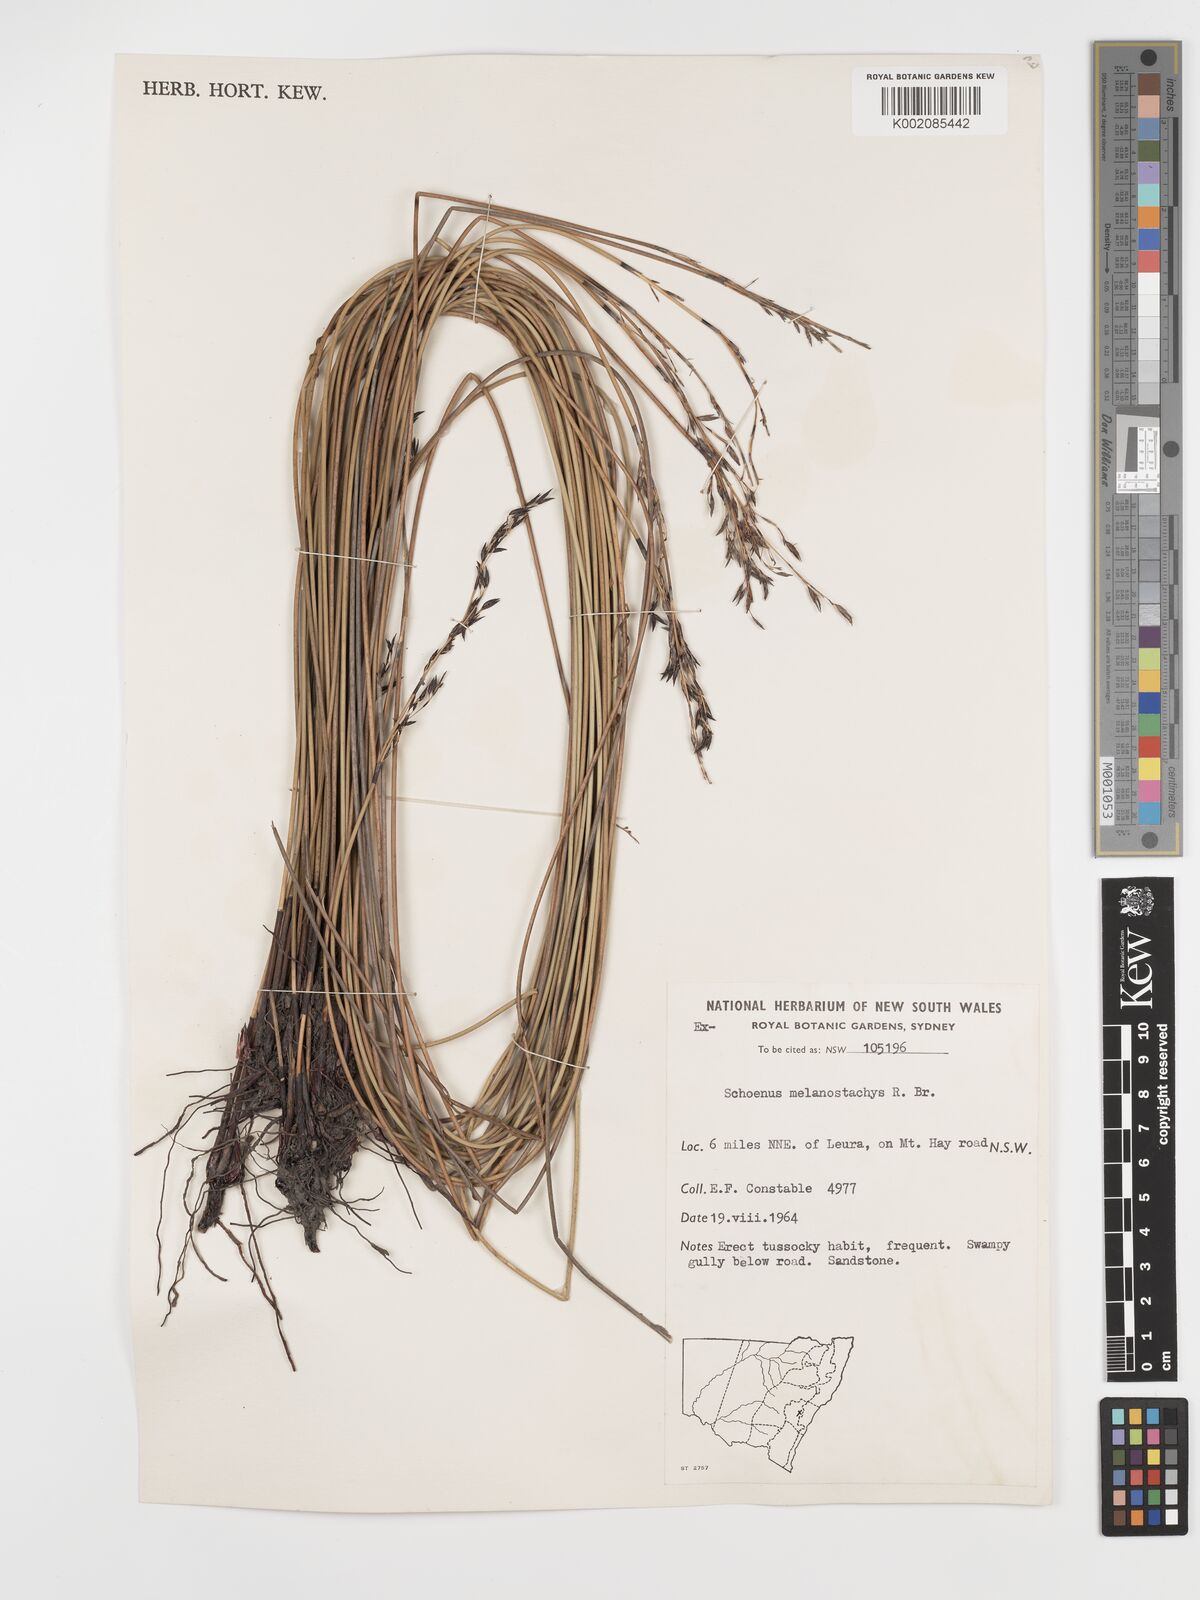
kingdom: Plantae
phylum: Tracheophyta
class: Liliopsida
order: Poales
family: Cyperaceae
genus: Schoenus
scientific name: Schoenus melanostachys
